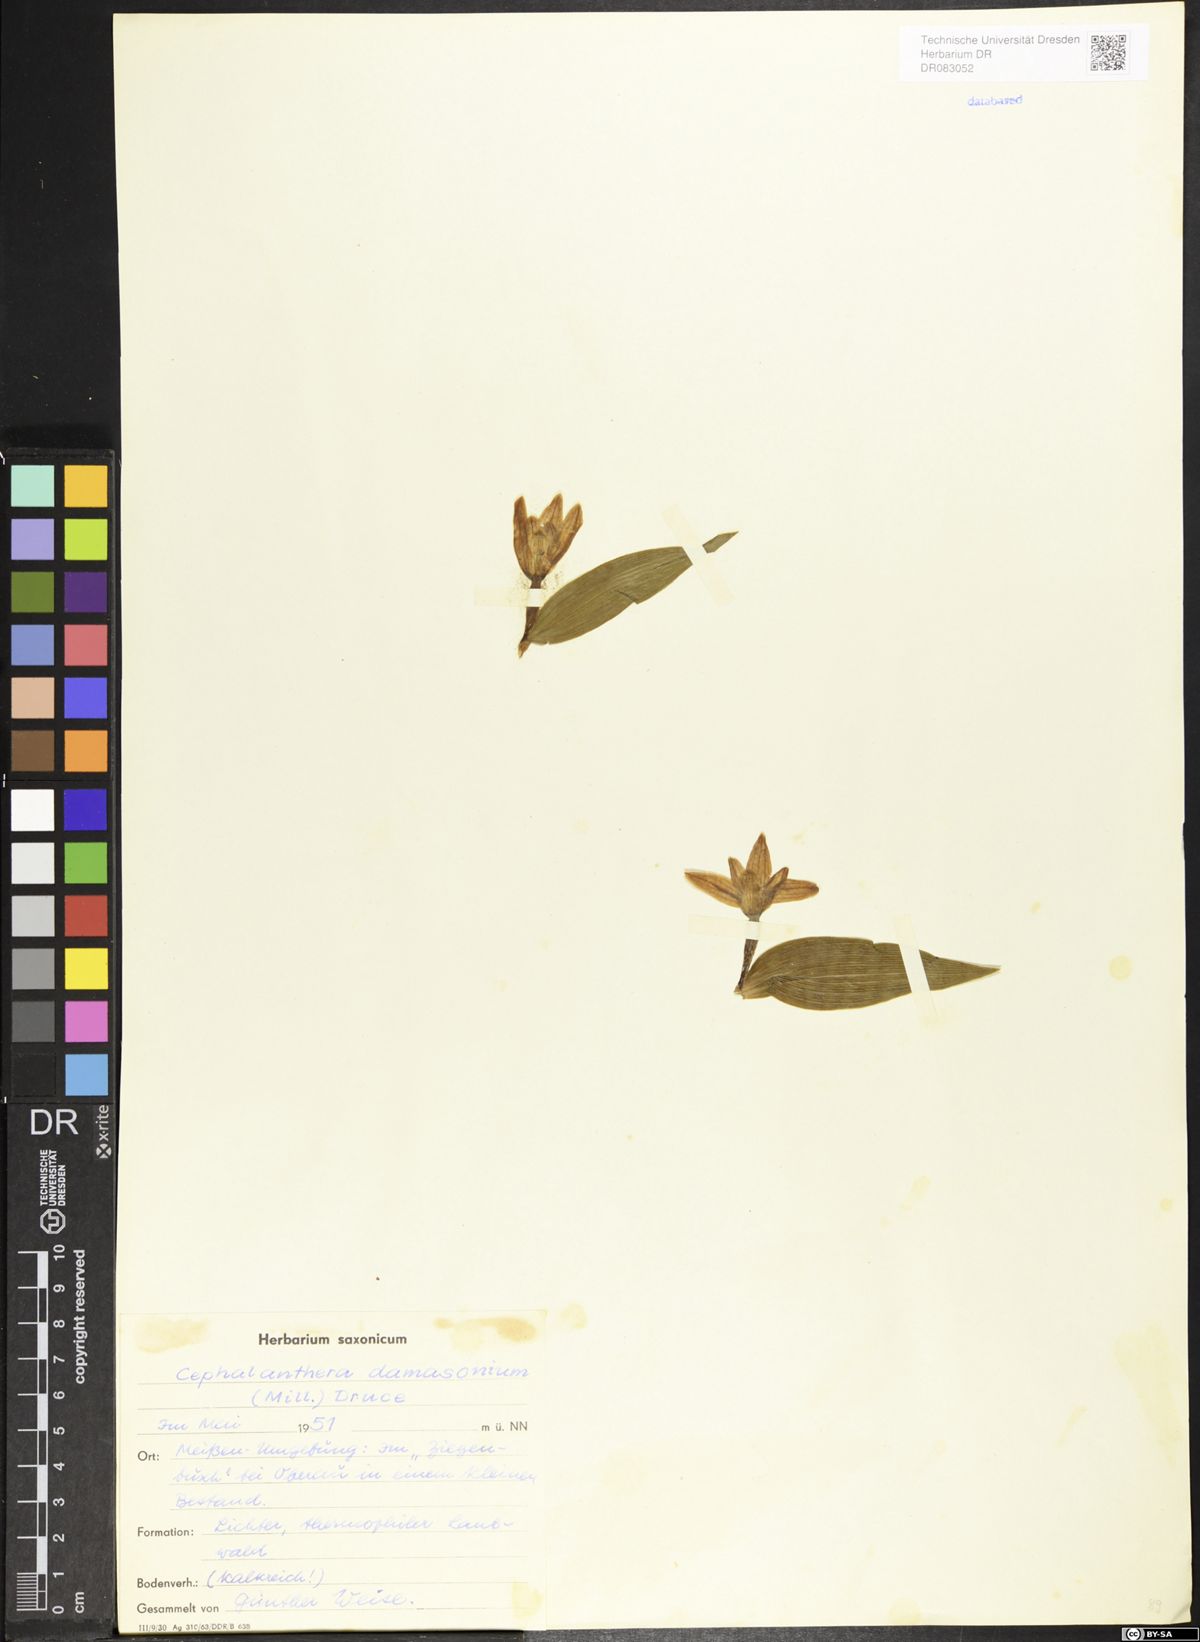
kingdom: Plantae
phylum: Tracheophyta
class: Liliopsida
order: Asparagales
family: Orchidaceae
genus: Cephalanthera
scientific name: Cephalanthera damasonium
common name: White helleborine
